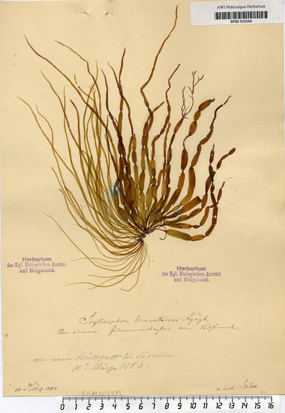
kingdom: Chromista
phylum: Ochrophyta
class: Phaeophyceae
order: Scytosiphonales
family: Scytosiphonaceae
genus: Scytosiphon
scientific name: Scytosiphon lomentaria
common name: Beanweed
